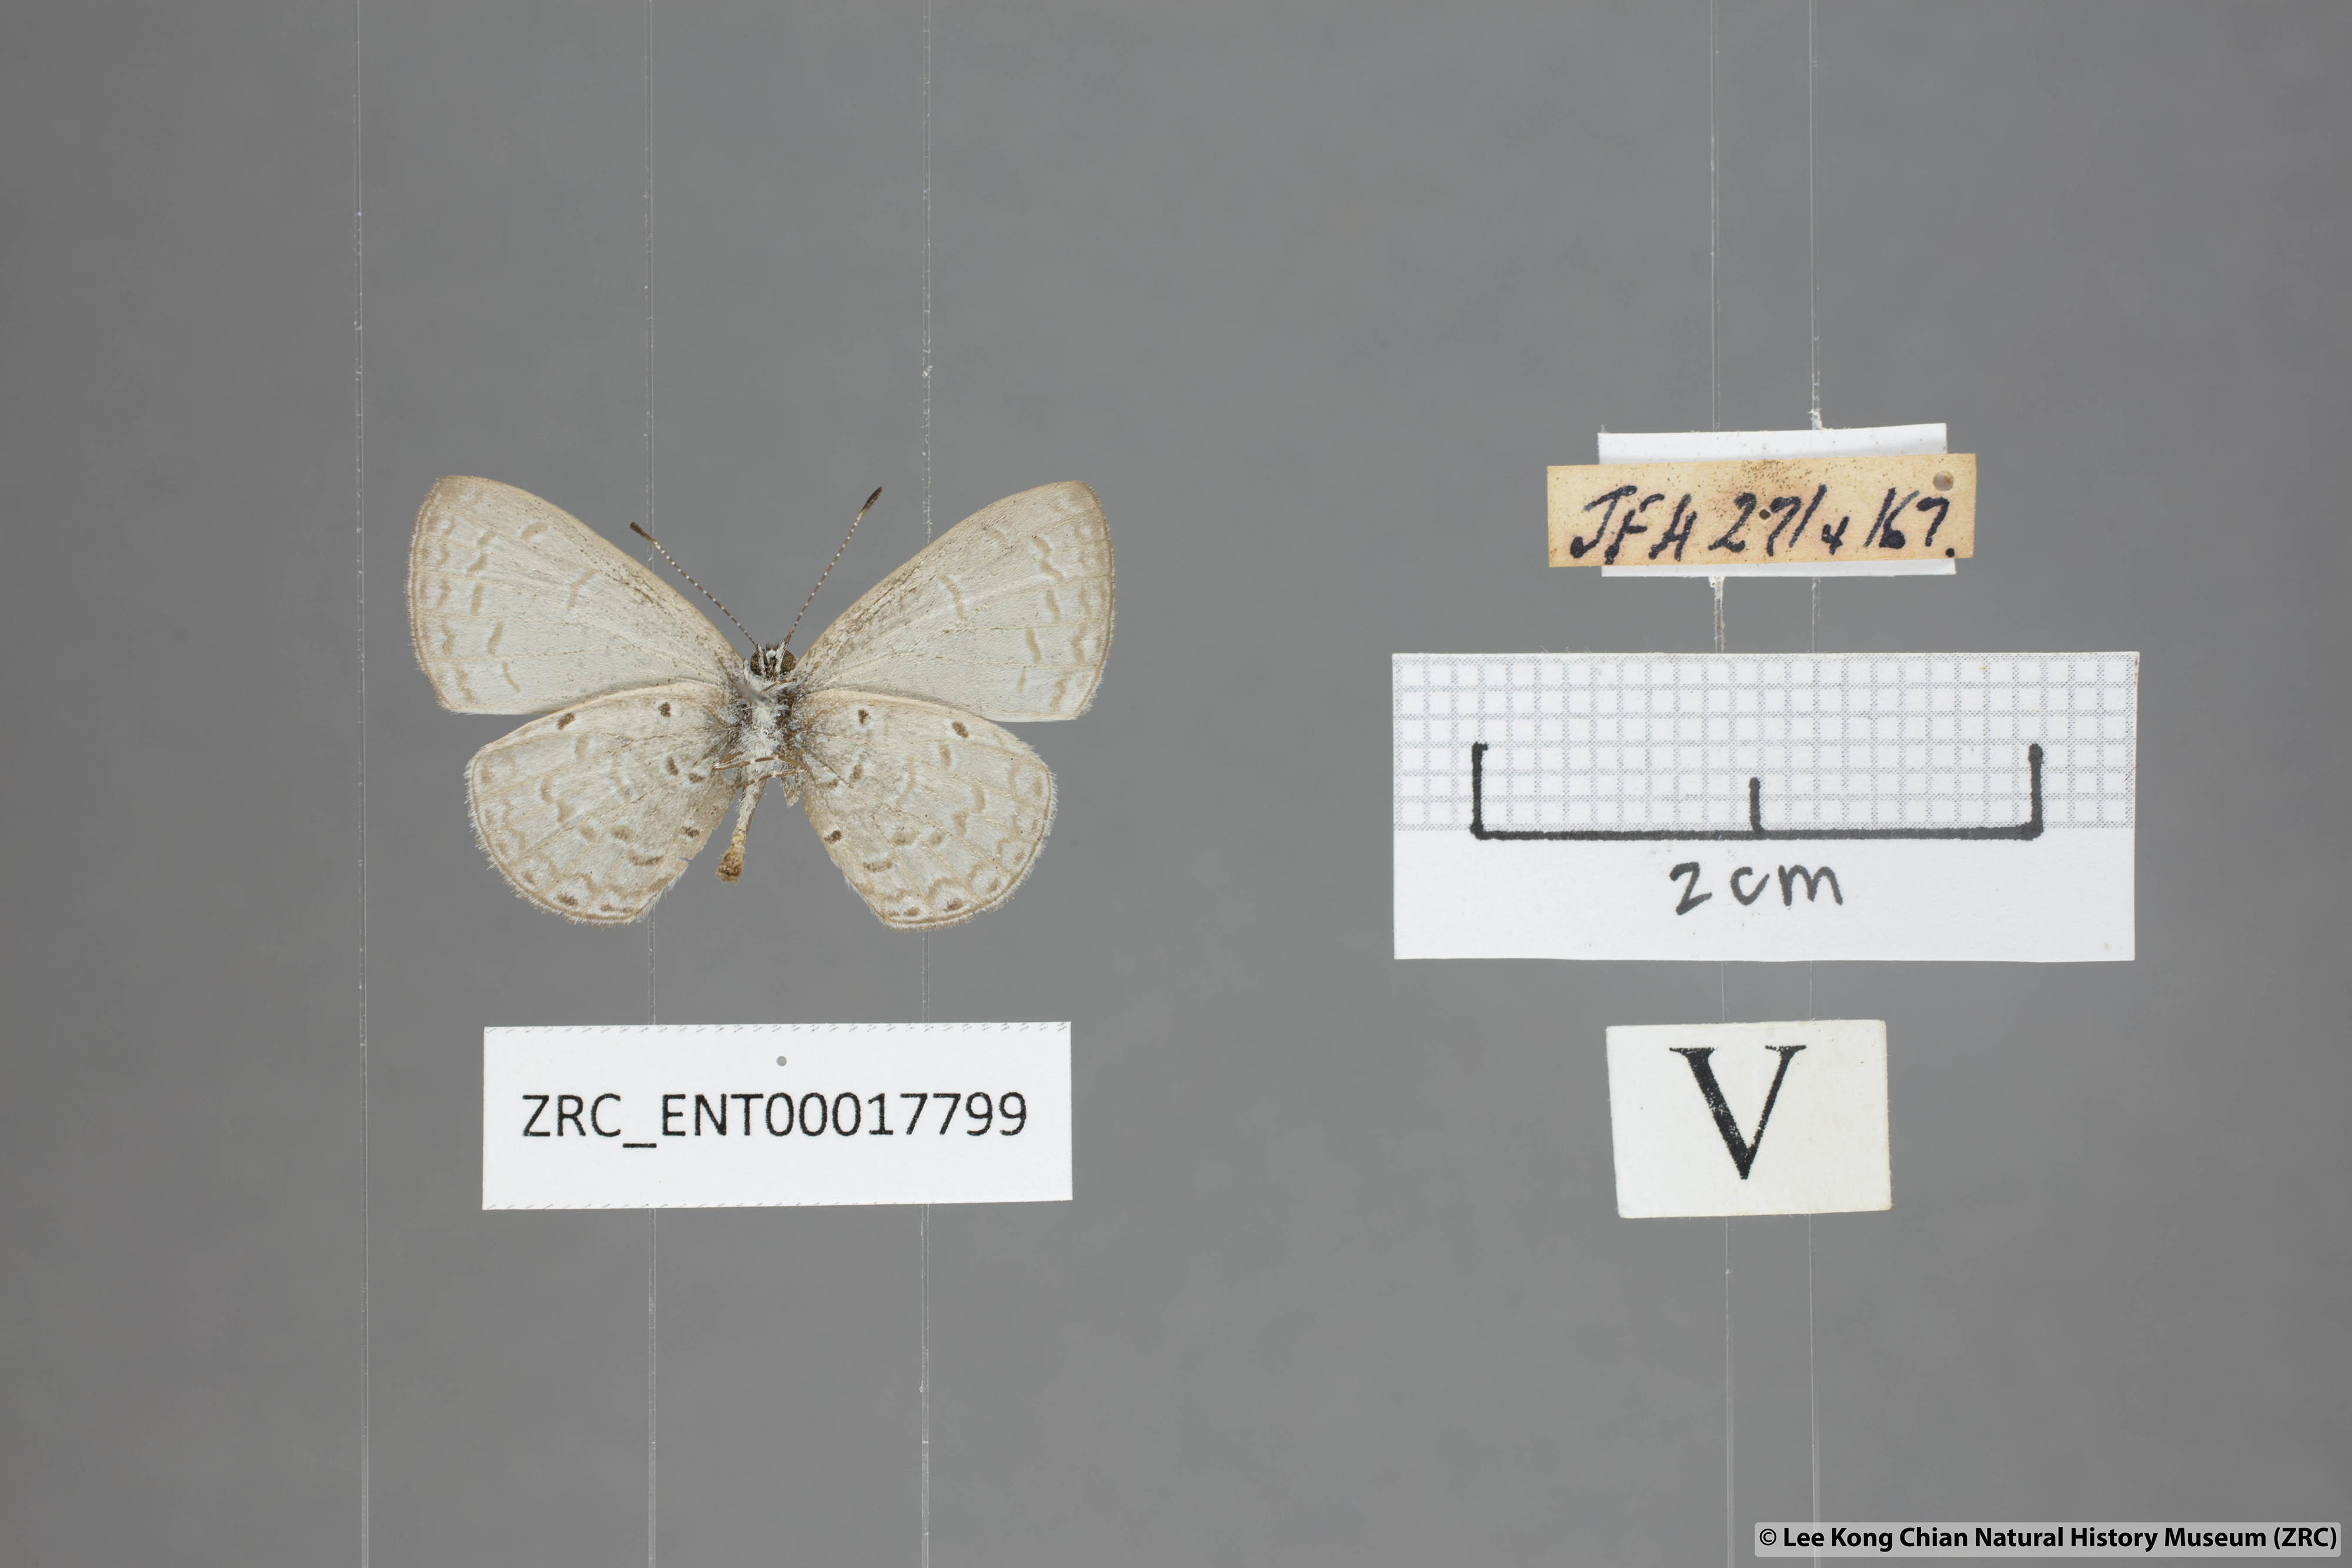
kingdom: Animalia
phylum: Arthropoda
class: Insecta
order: Lepidoptera
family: Lycaenidae
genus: Monodontides
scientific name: Monodontides
